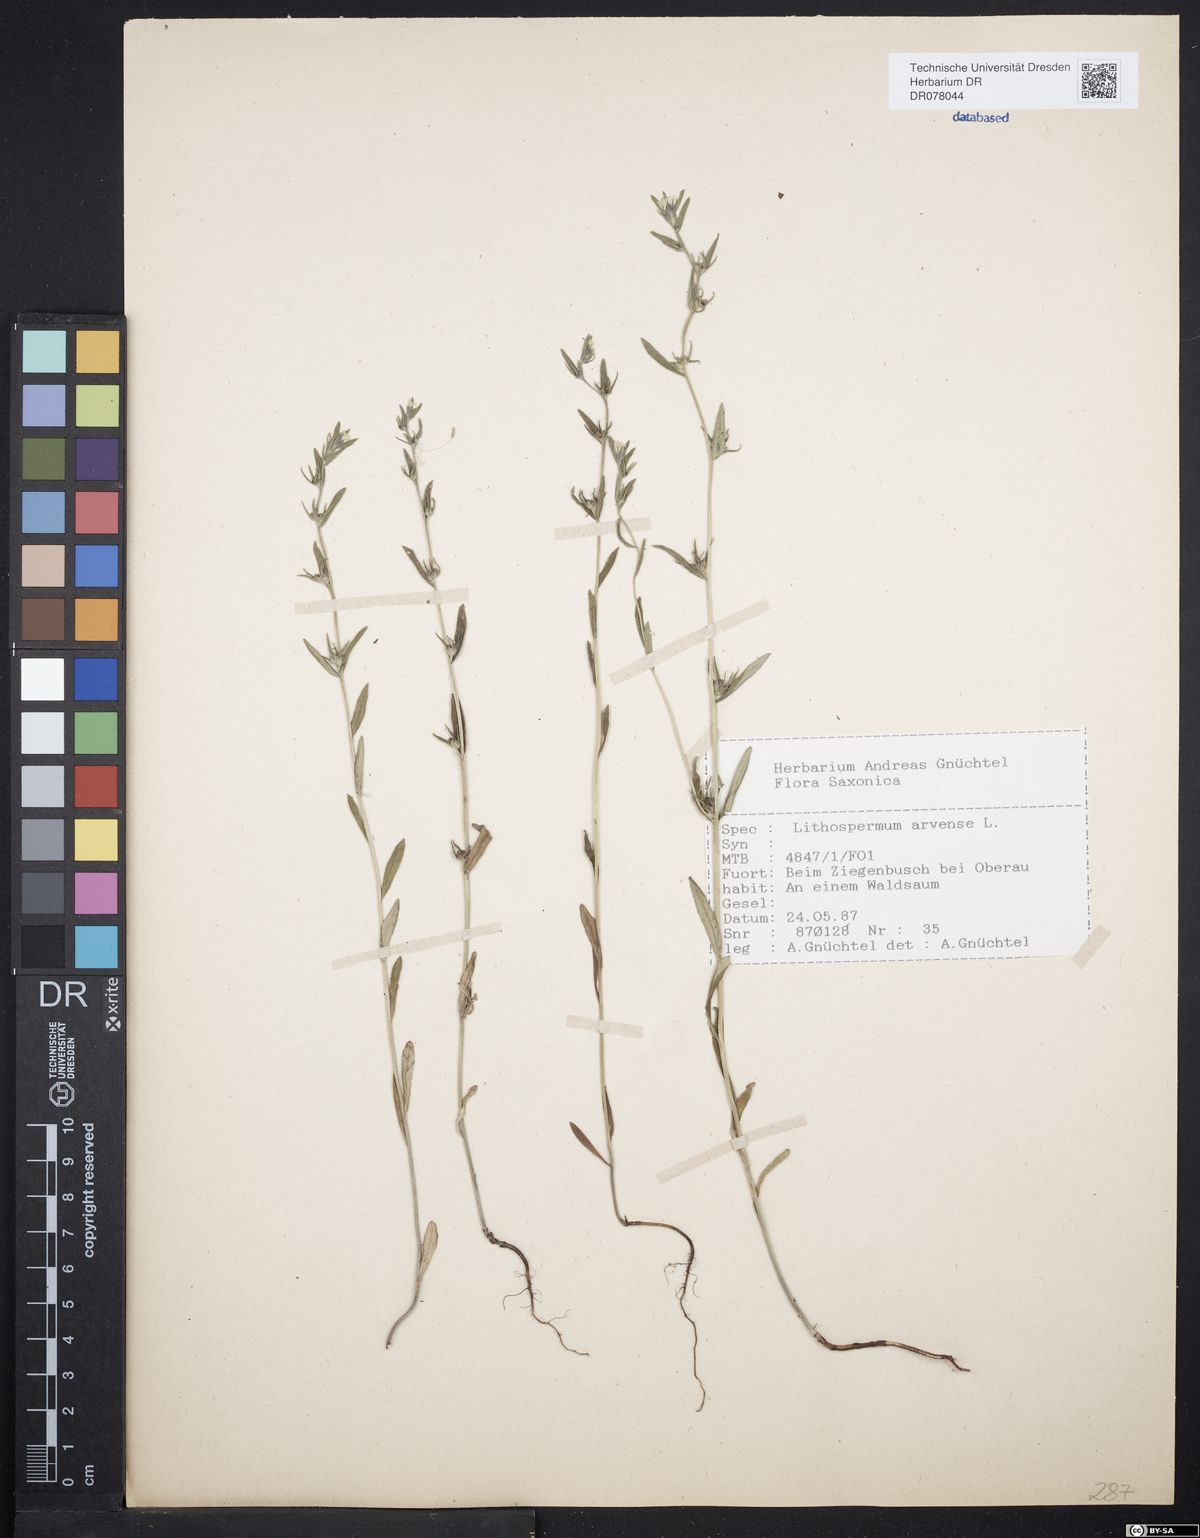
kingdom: Plantae
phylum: Tracheophyta
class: Magnoliopsida
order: Boraginales
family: Boraginaceae
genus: Buglossoides
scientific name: Buglossoides arvensis
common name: Corn gromwell
